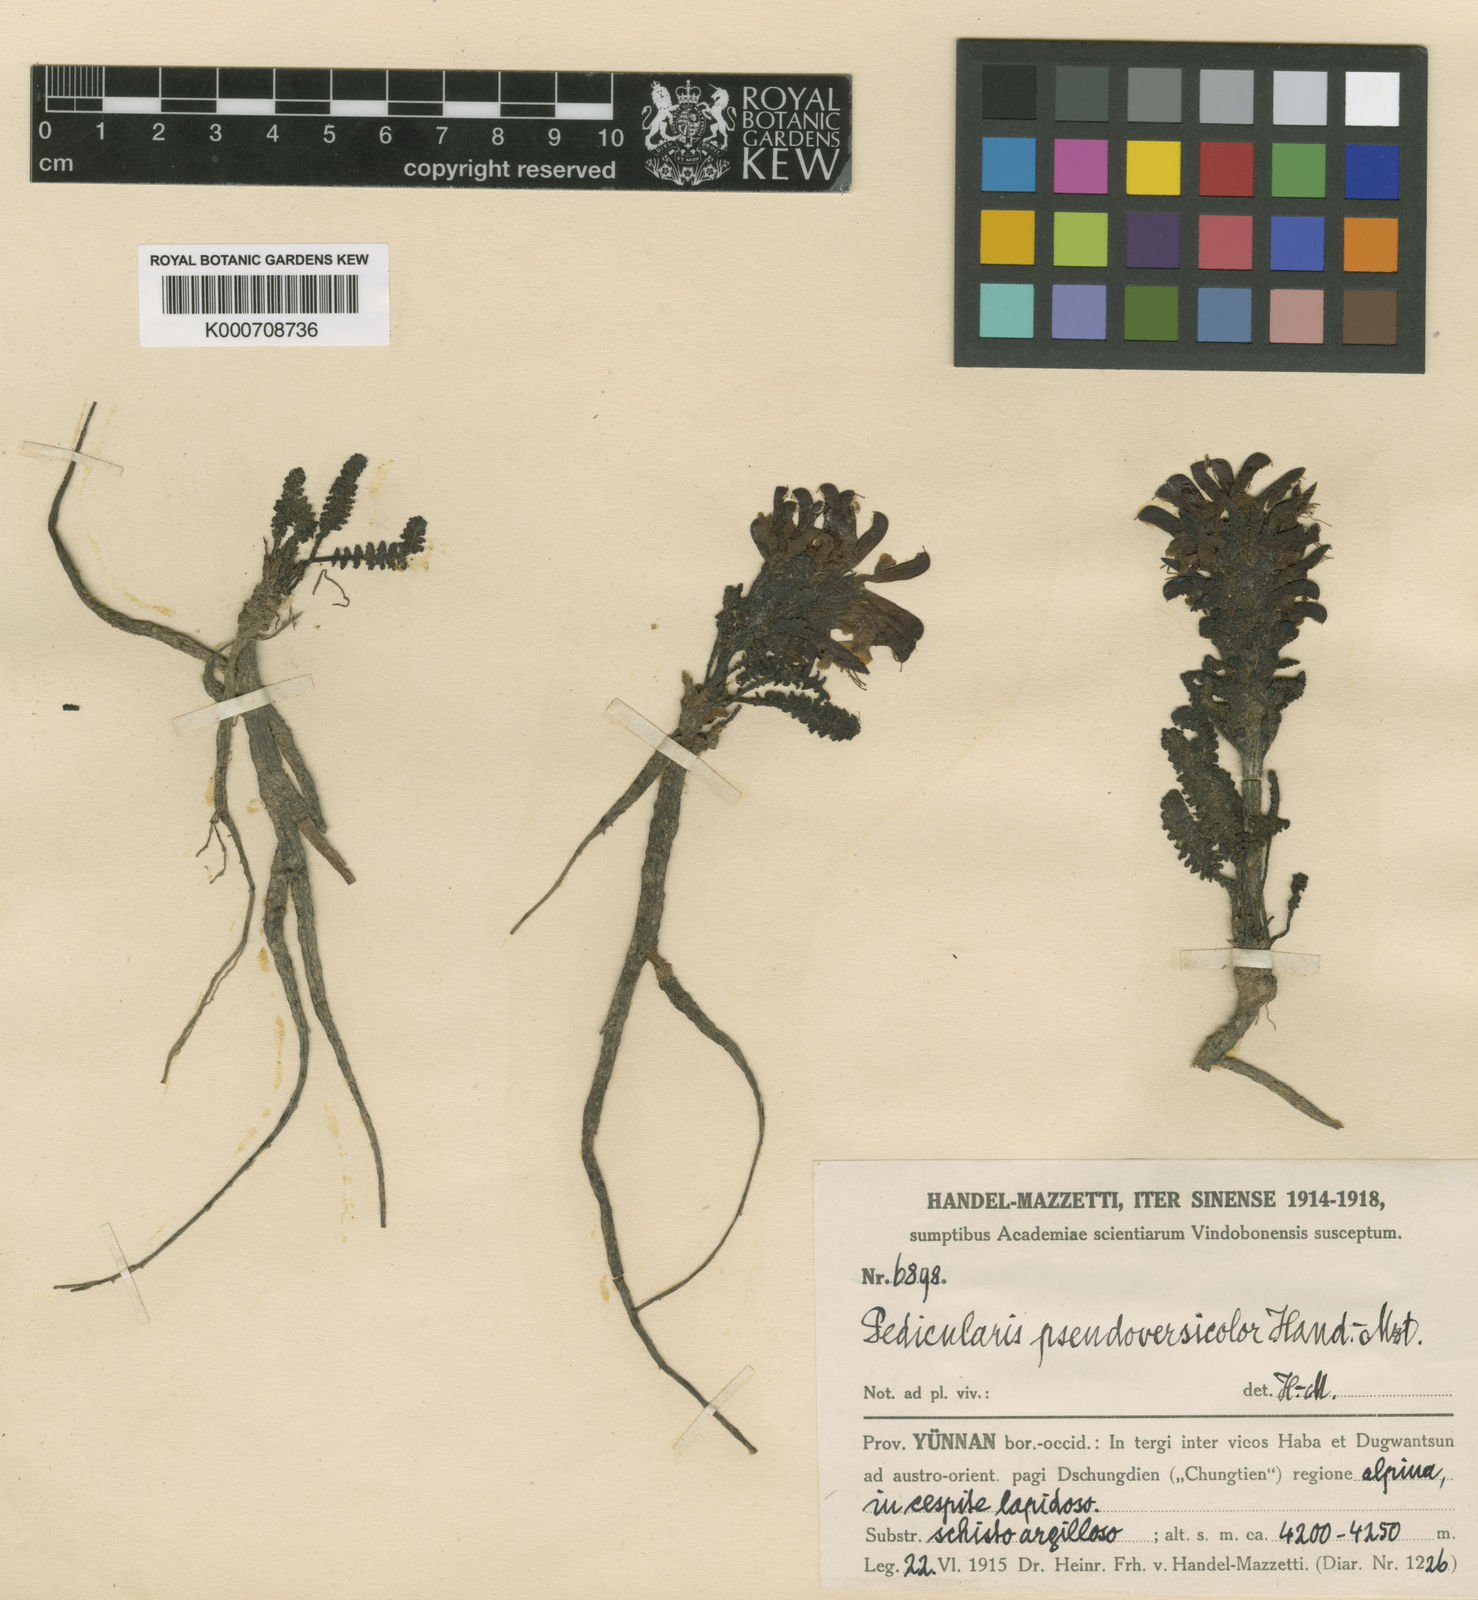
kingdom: Plantae
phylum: Tracheophyta
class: Magnoliopsida
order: Lamiales
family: Orobanchaceae
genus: Pedicularis
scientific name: Pedicularis pseudoversicolor
